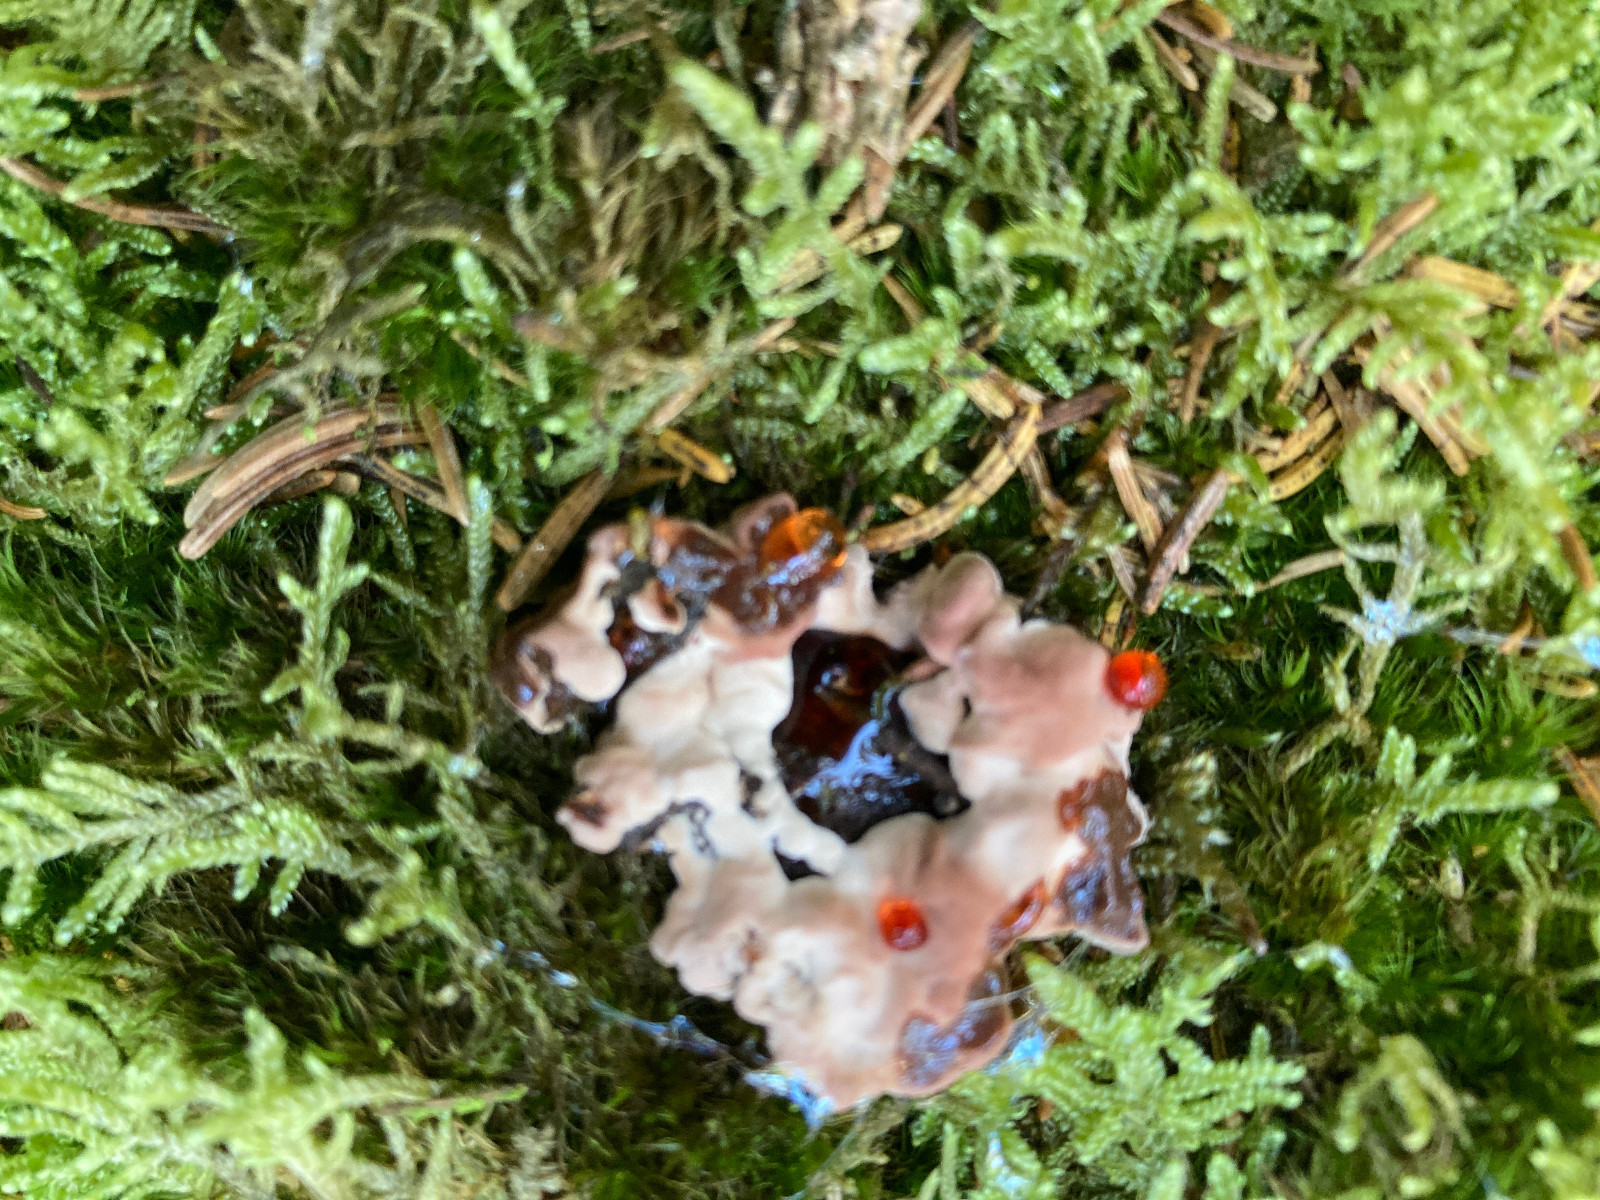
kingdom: Fungi
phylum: Basidiomycota
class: Agaricomycetes
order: Thelephorales
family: Bankeraceae
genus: Hydnellum
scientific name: Hydnellum ferrugineum
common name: rust-korkpigsvamp
